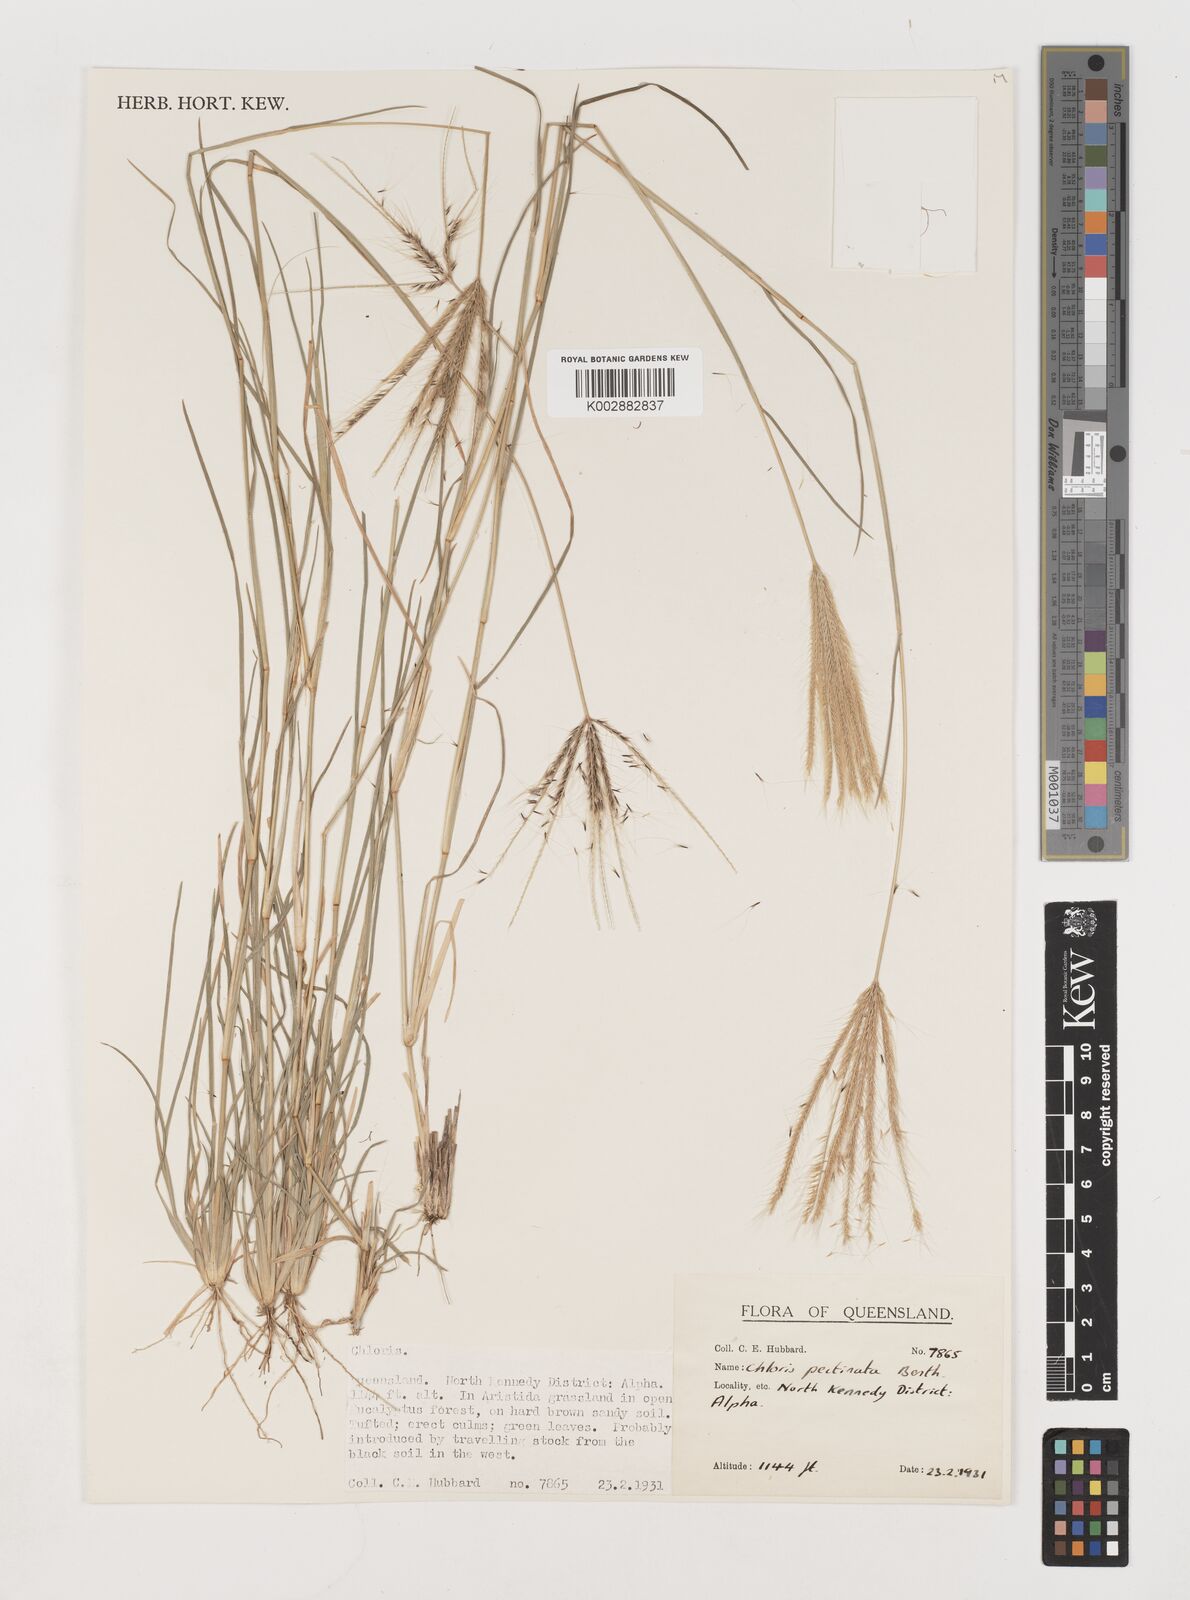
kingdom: Plantae
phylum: Tracheophyta
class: Liliopsida
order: Poales
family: Poaceae
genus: Chloris
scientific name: Chloris pectinata
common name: Comb windmill grass
